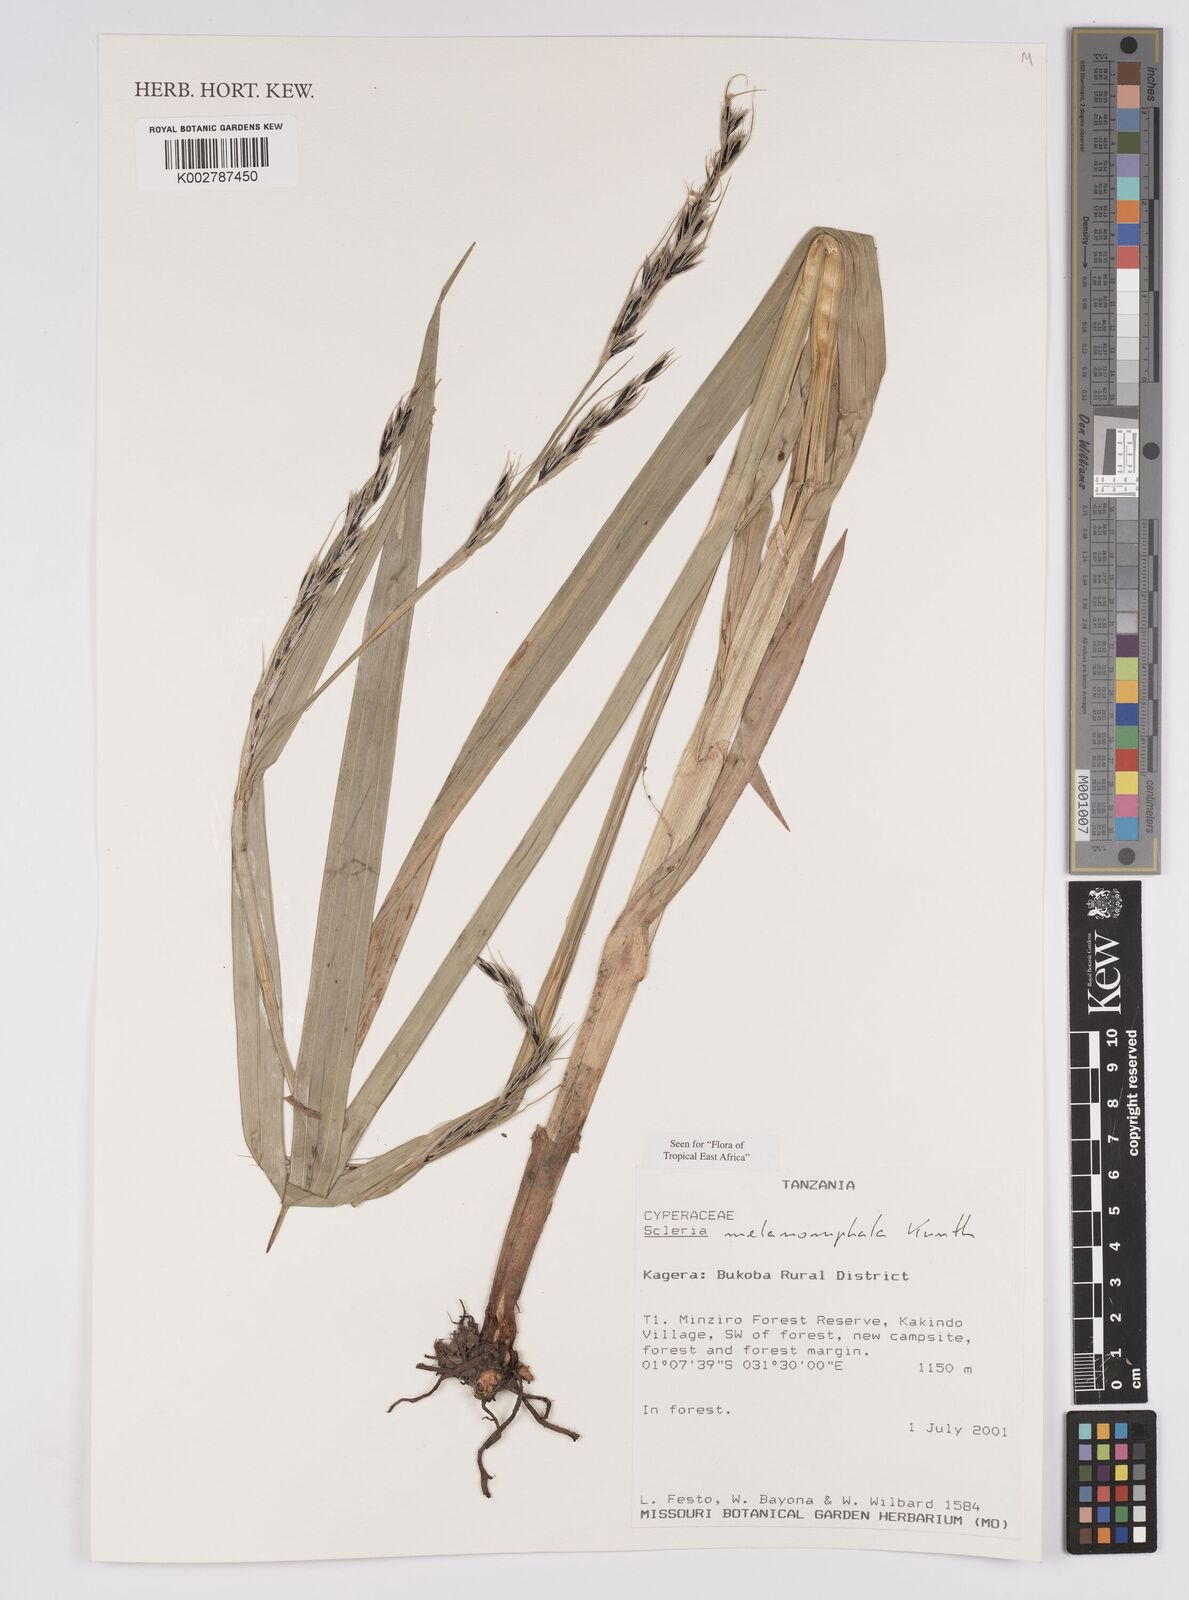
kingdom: Plantae
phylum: Tracheophyta
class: Liliopsida
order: Poales
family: Cyperaceae
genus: Scleria
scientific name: Scleria melanomphala
